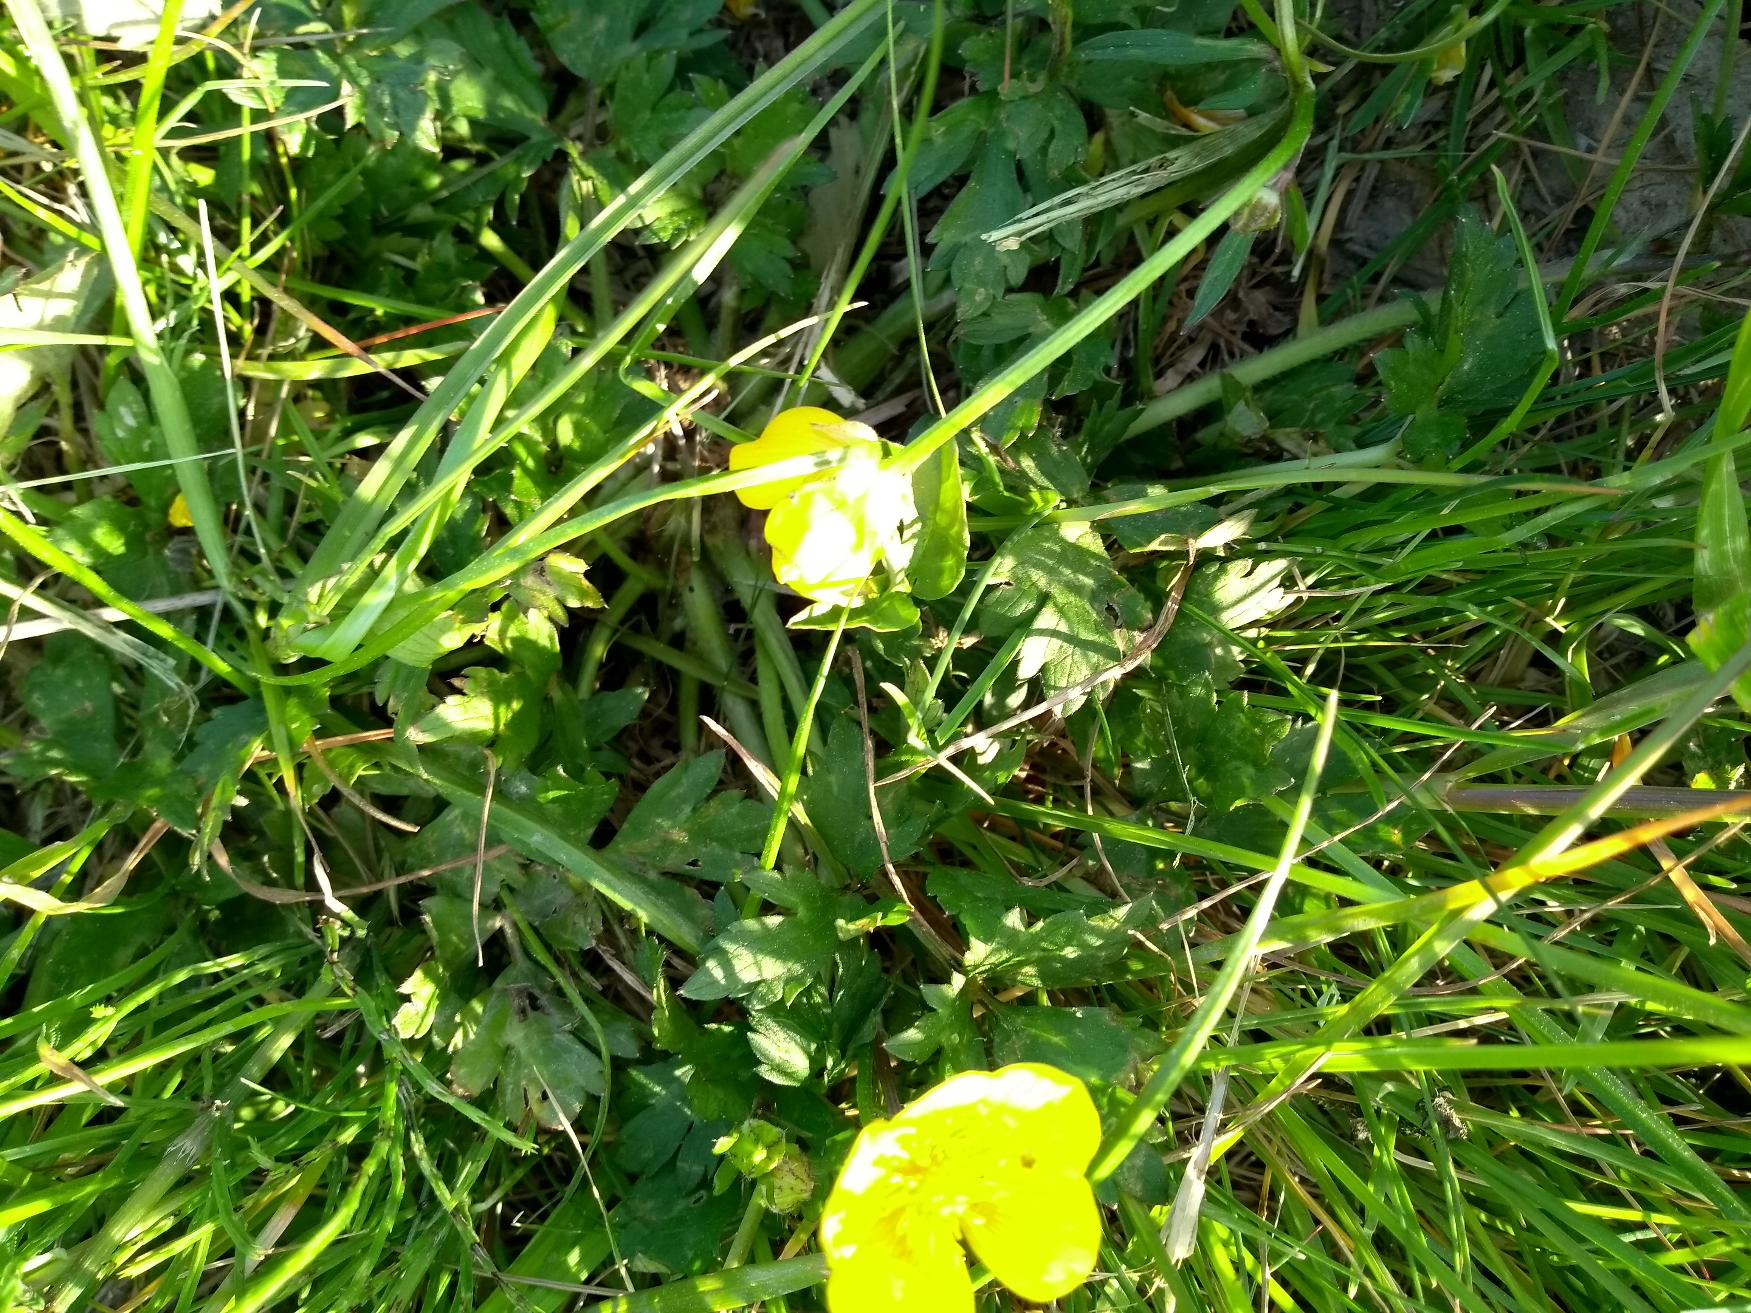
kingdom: Plantae
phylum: Tracheophyta
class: Magnoliopsida
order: Ranunculales
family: Ranunculaceae
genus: Ranunculus
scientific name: Ranunculus repens
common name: Lav ranunkel
